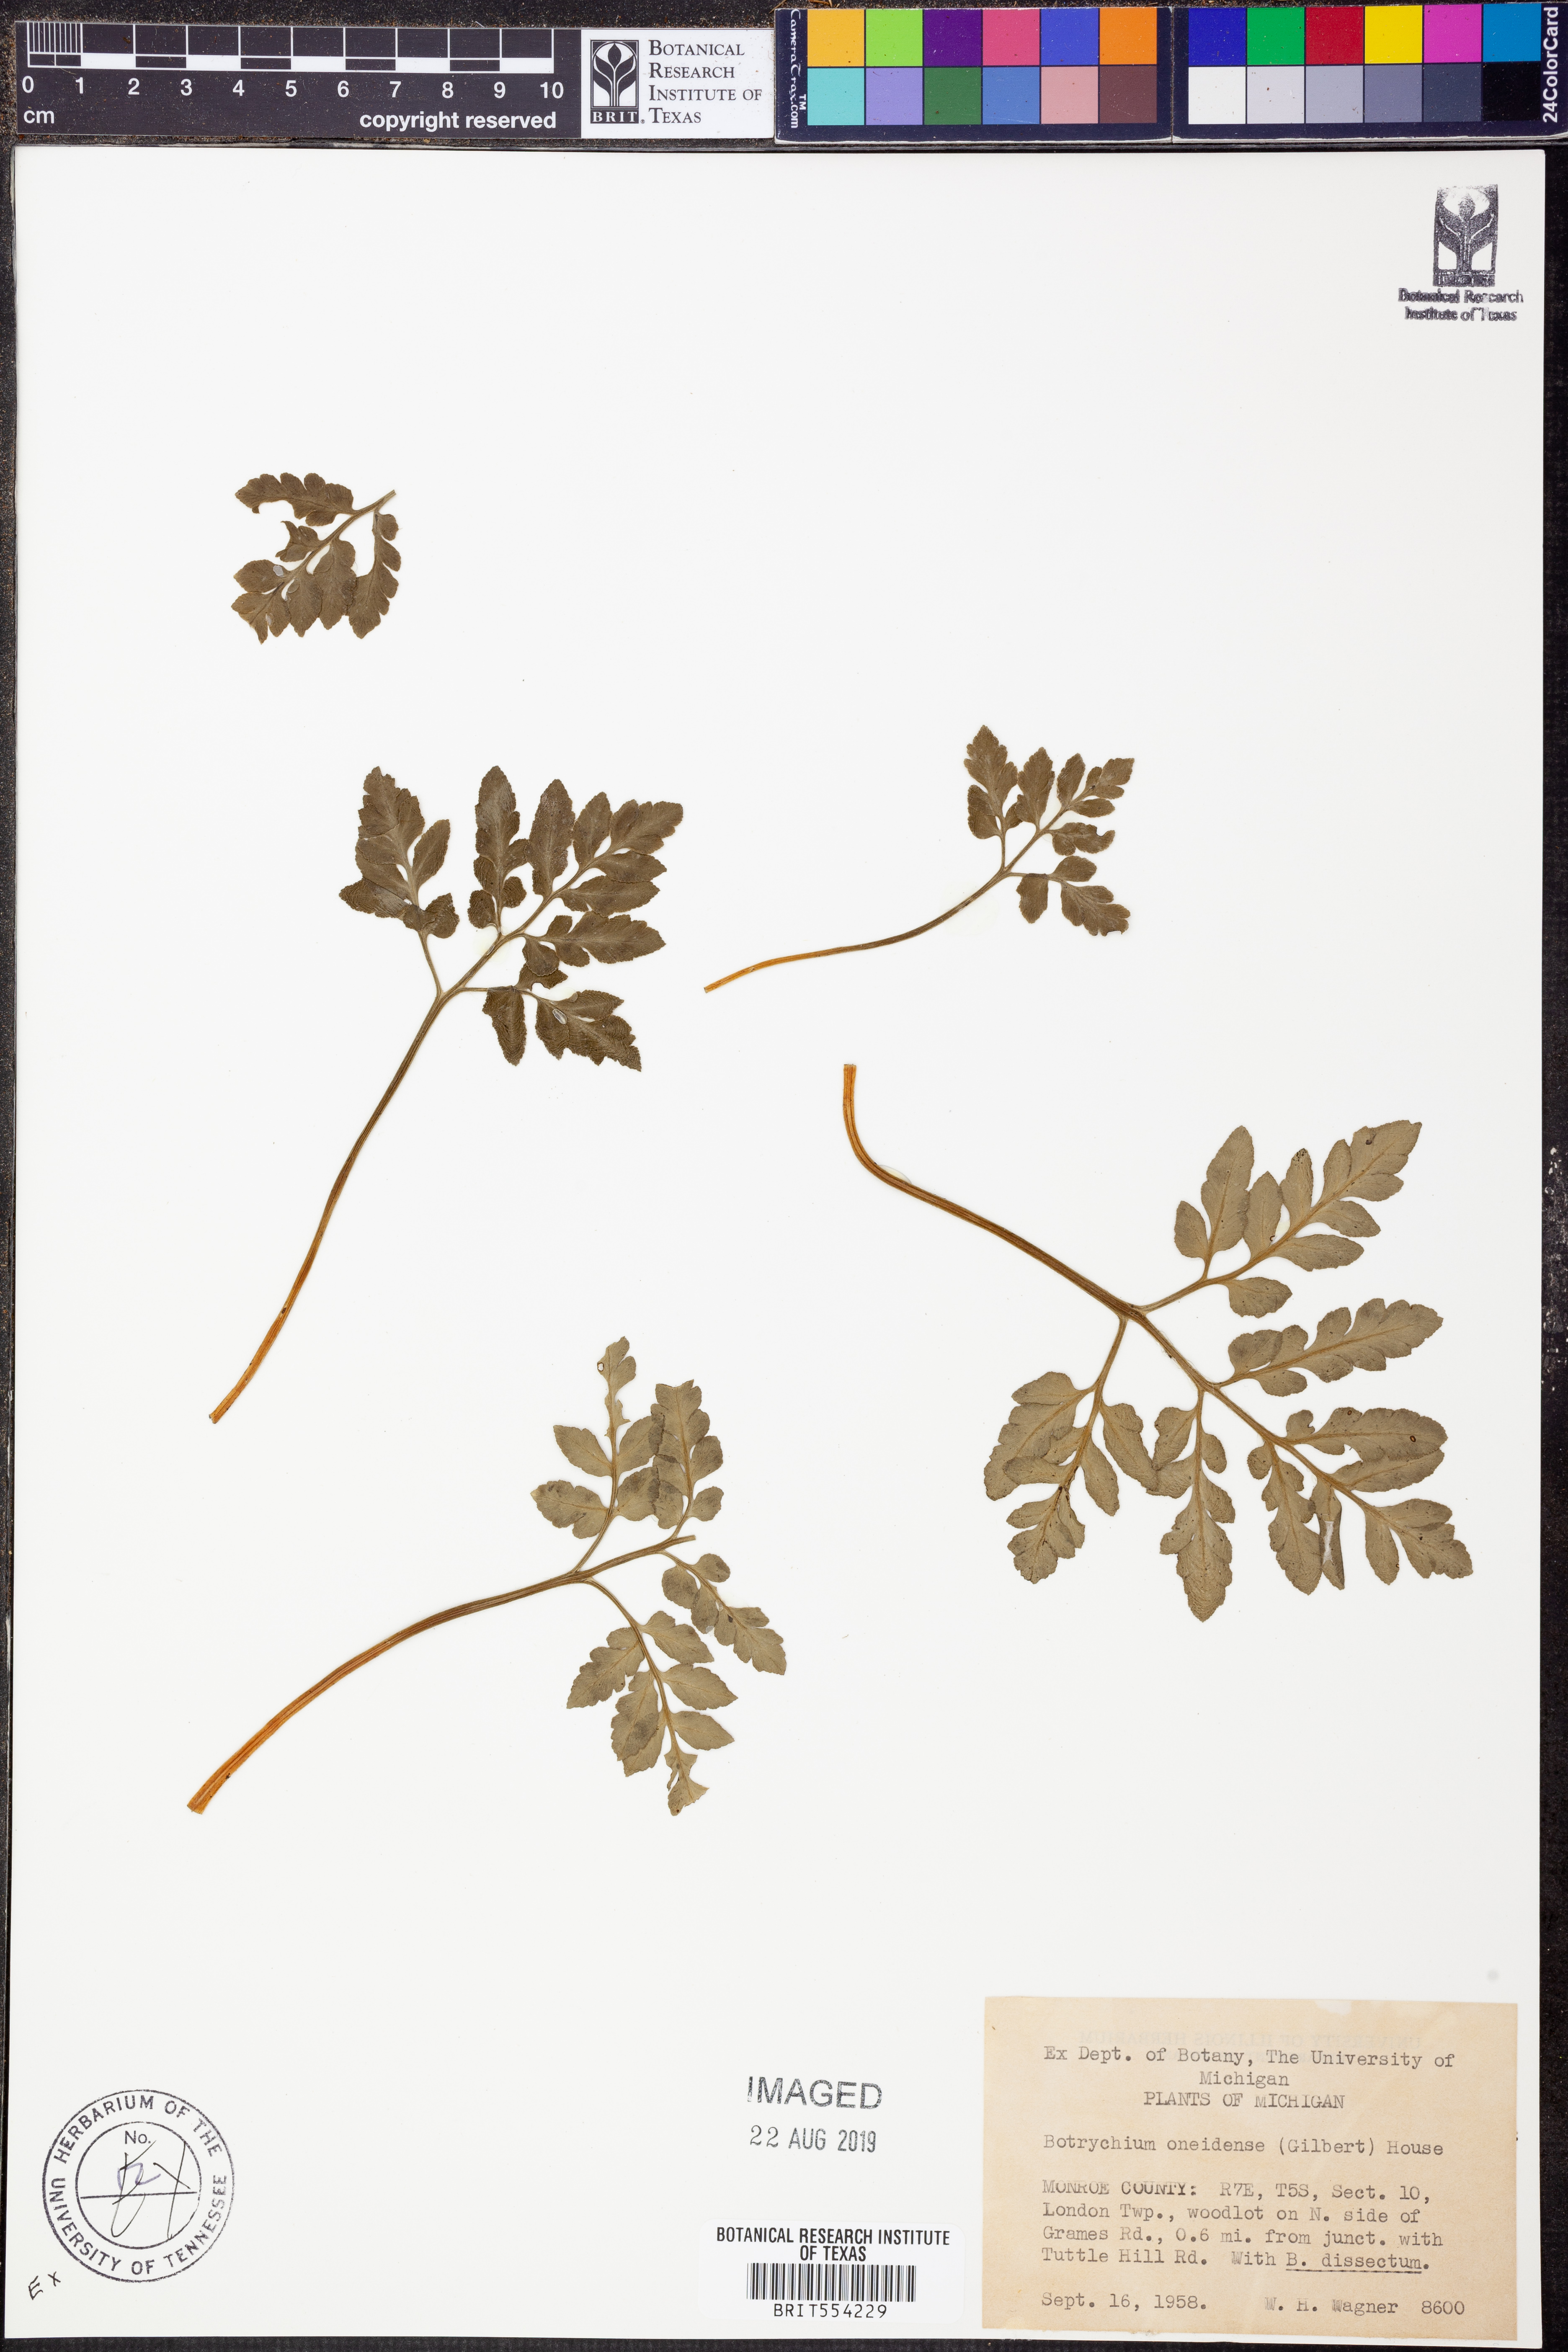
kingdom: Plantae
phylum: Tracheophyta
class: Polypodiopsida
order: Ophioglossales
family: Ophioglossaceae
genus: Sceptridium
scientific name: Sceptridium oneidense
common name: Blunt-lobed grapefern
